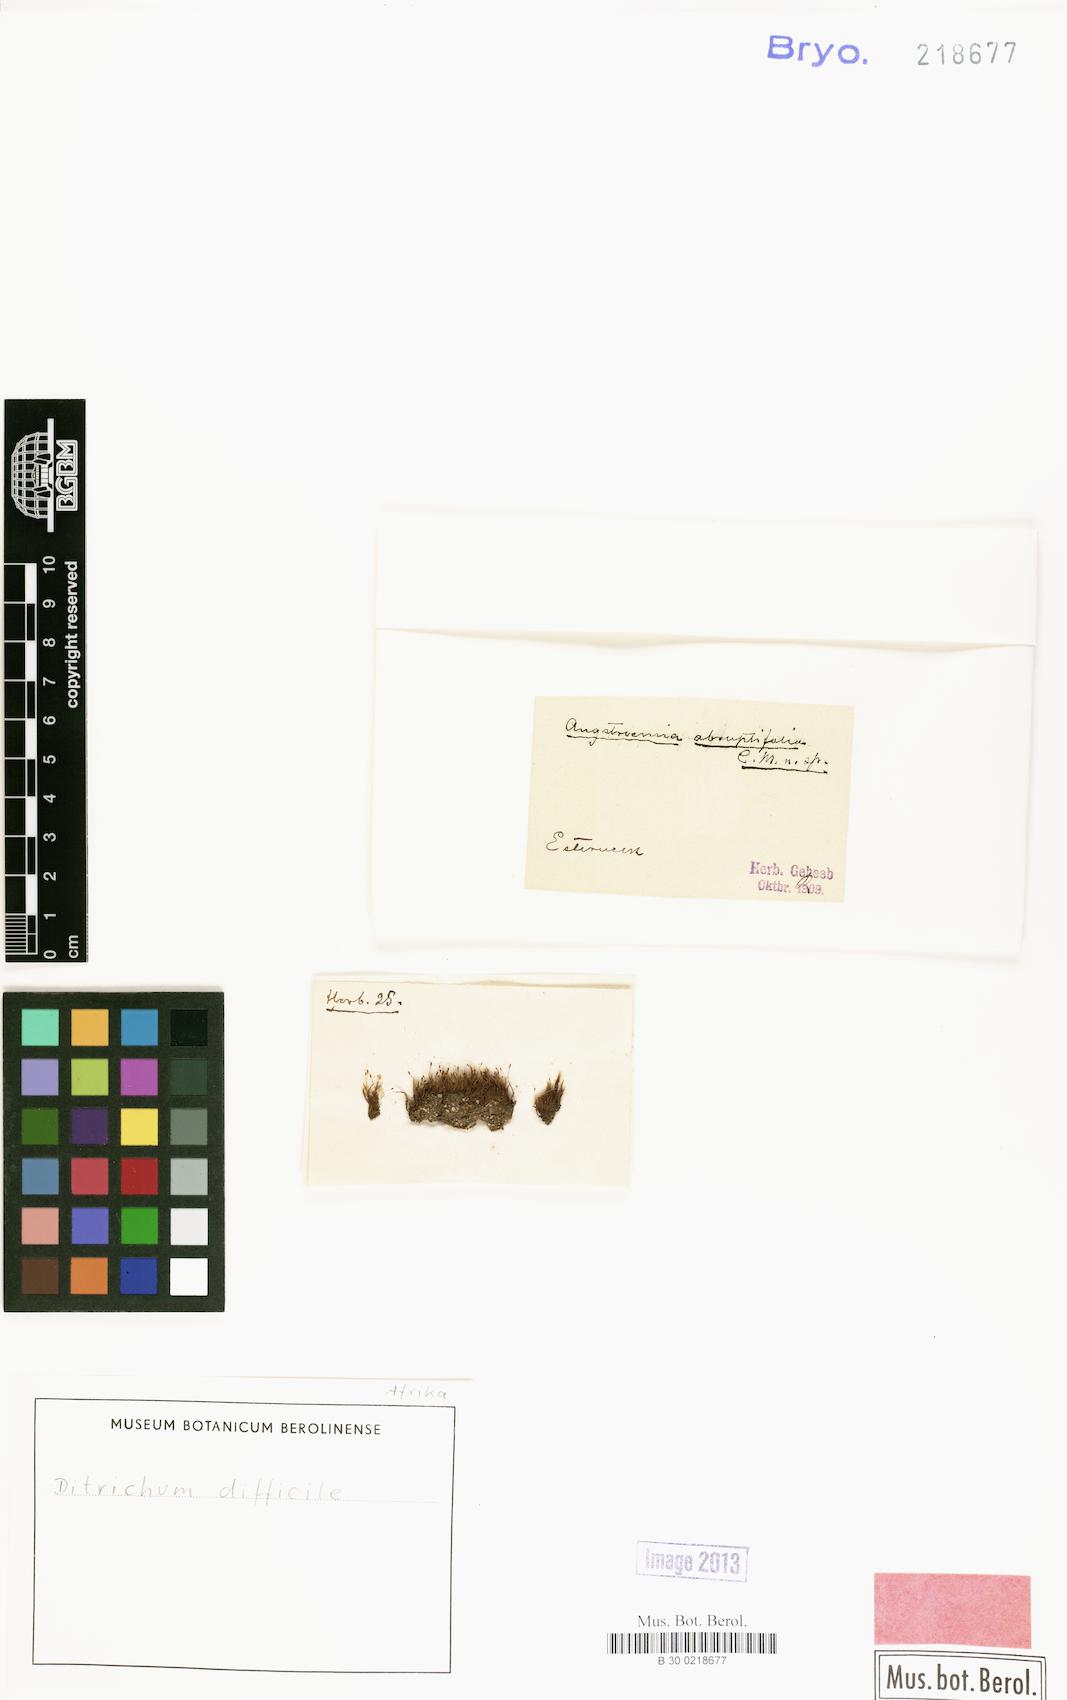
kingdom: Plantae
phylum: Bryophyta
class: Bryopsida
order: Dicranales
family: Ditrichaceae
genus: Ditrichum
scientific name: Ditrichum difficile
